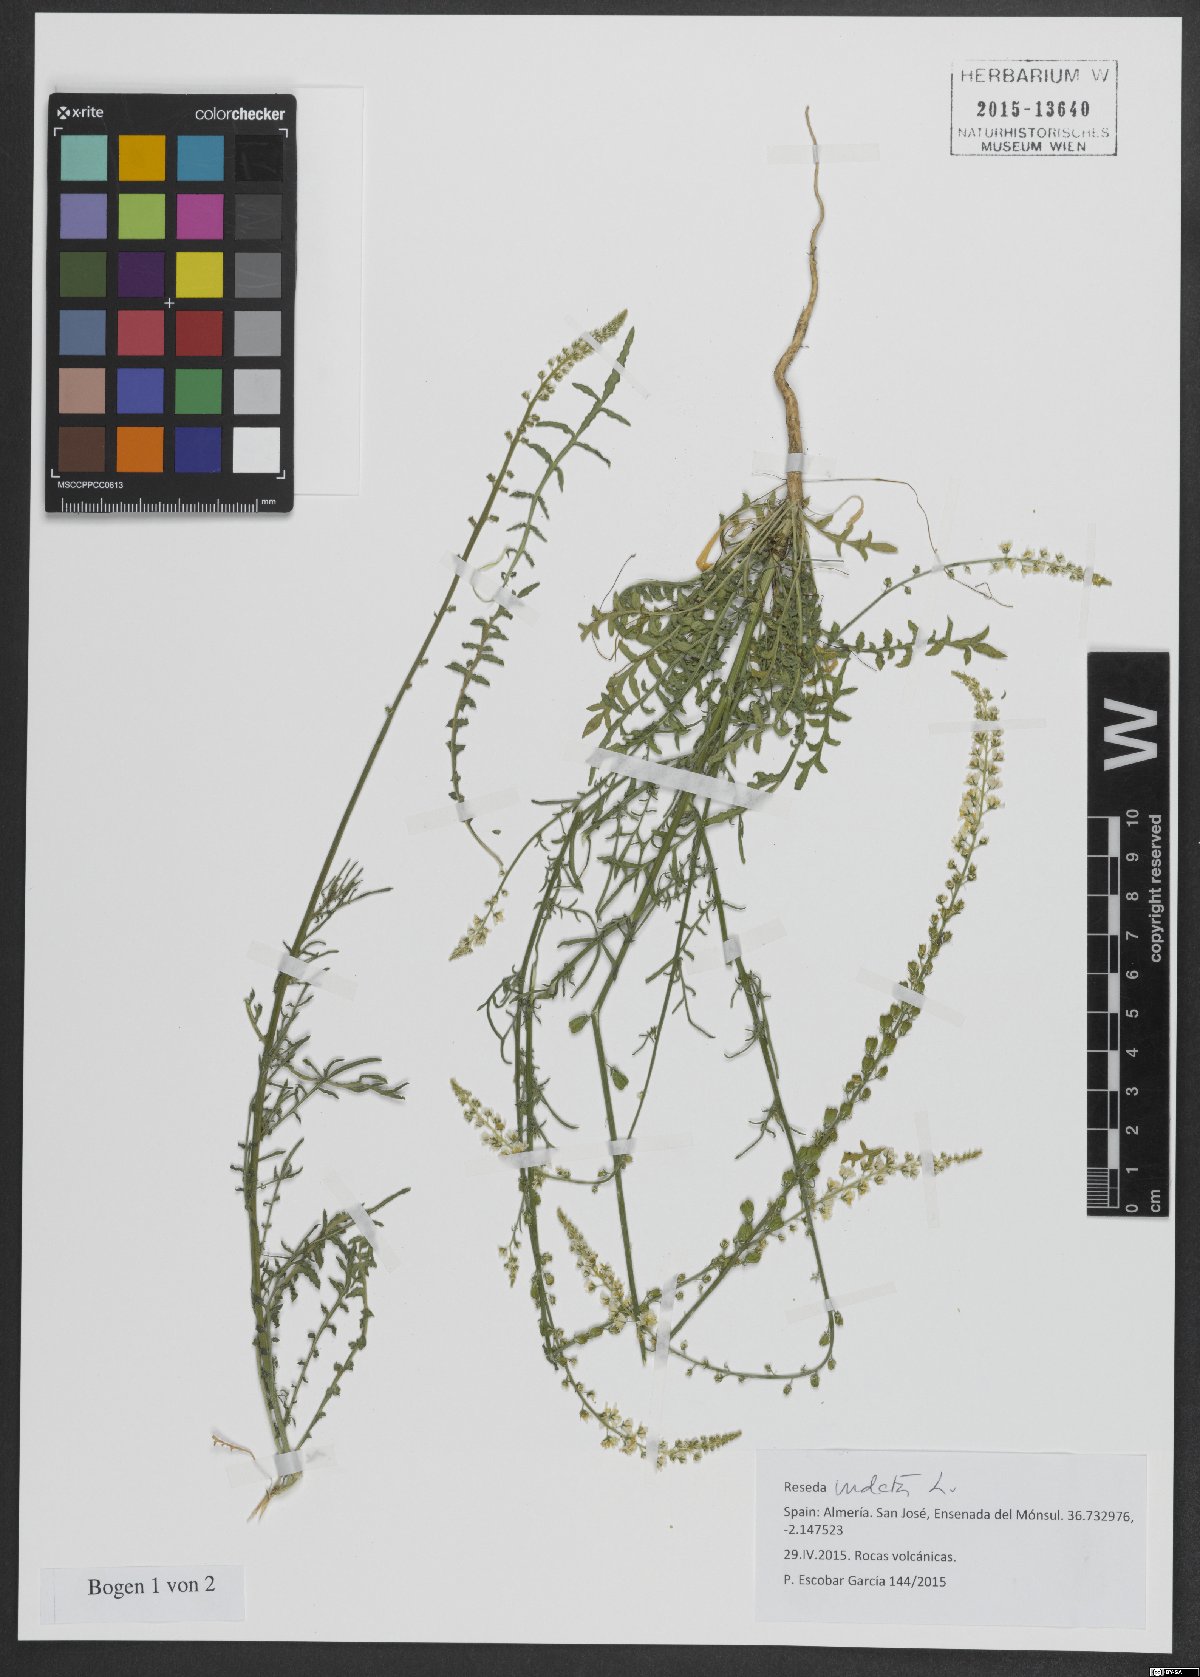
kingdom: Plantae
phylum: Tracheophyta
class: Magnoliopsida
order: Brassicales
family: Resedaceae
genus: Reseda
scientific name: Reseda undata
